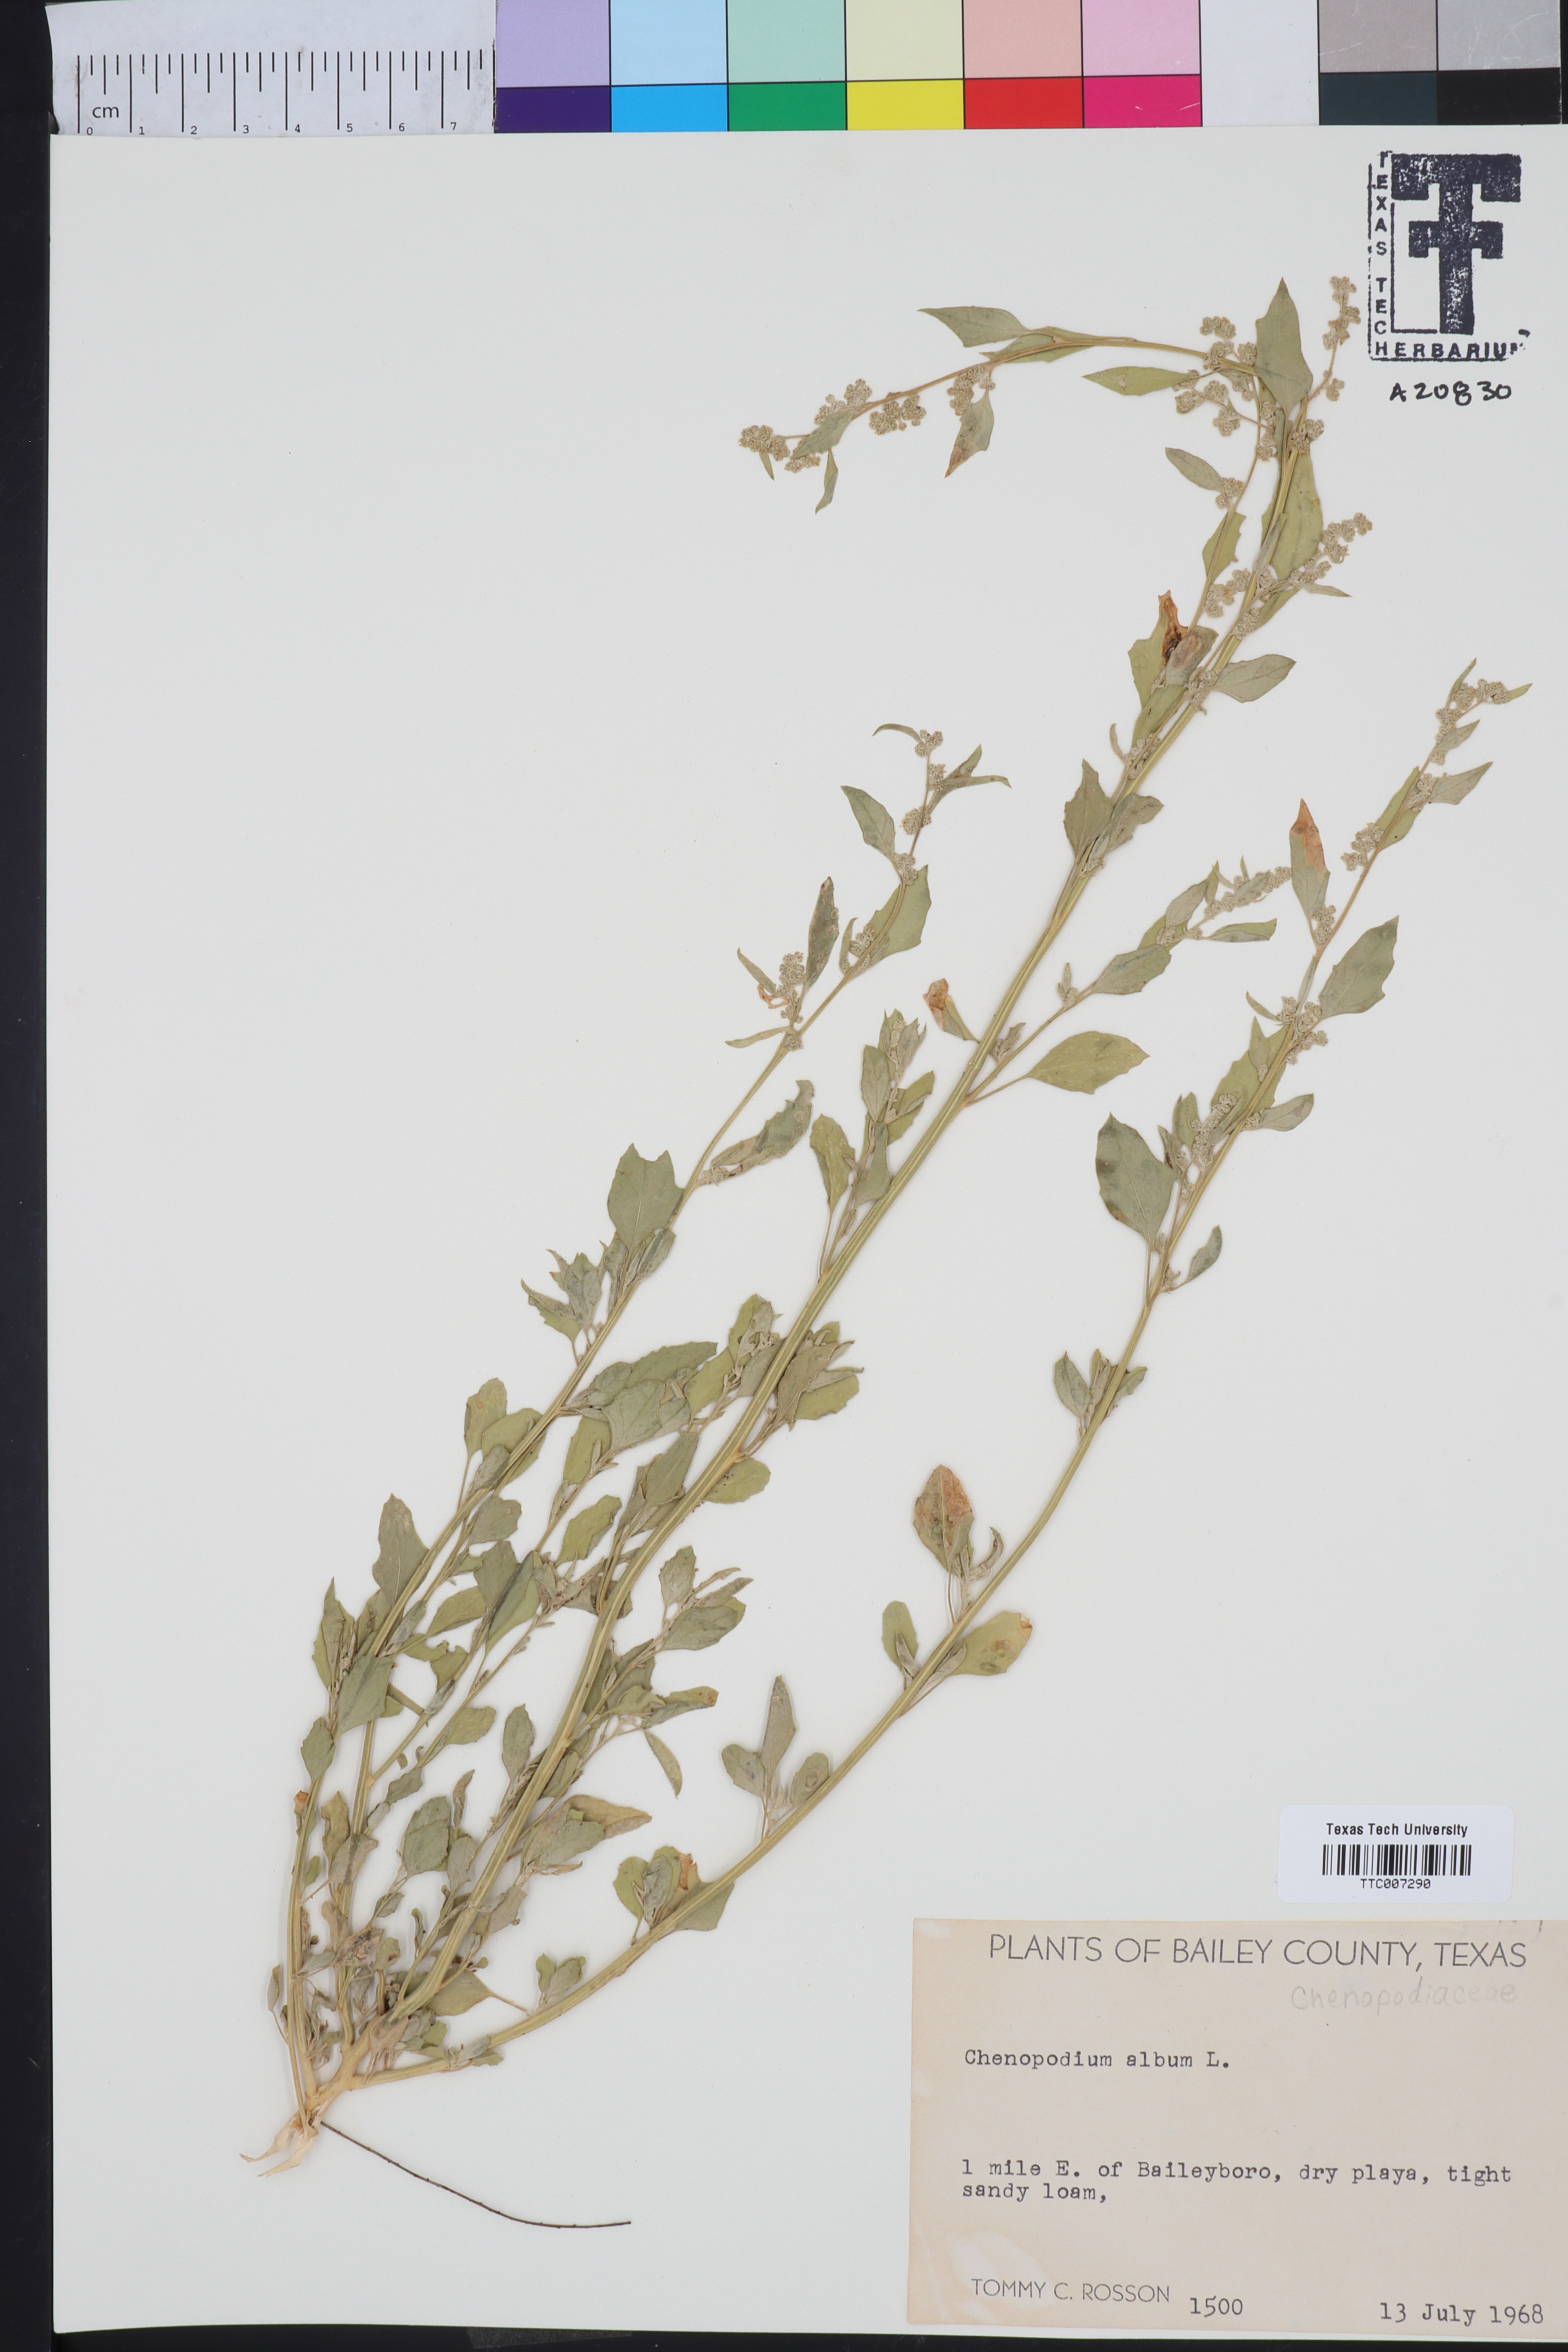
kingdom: Plantae
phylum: Tracheophyta
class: Magnoliopsida
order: Caryophyllales
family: Amaranthaceae
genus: Chenopodium
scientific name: Chenopodium album
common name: Fat-hen
